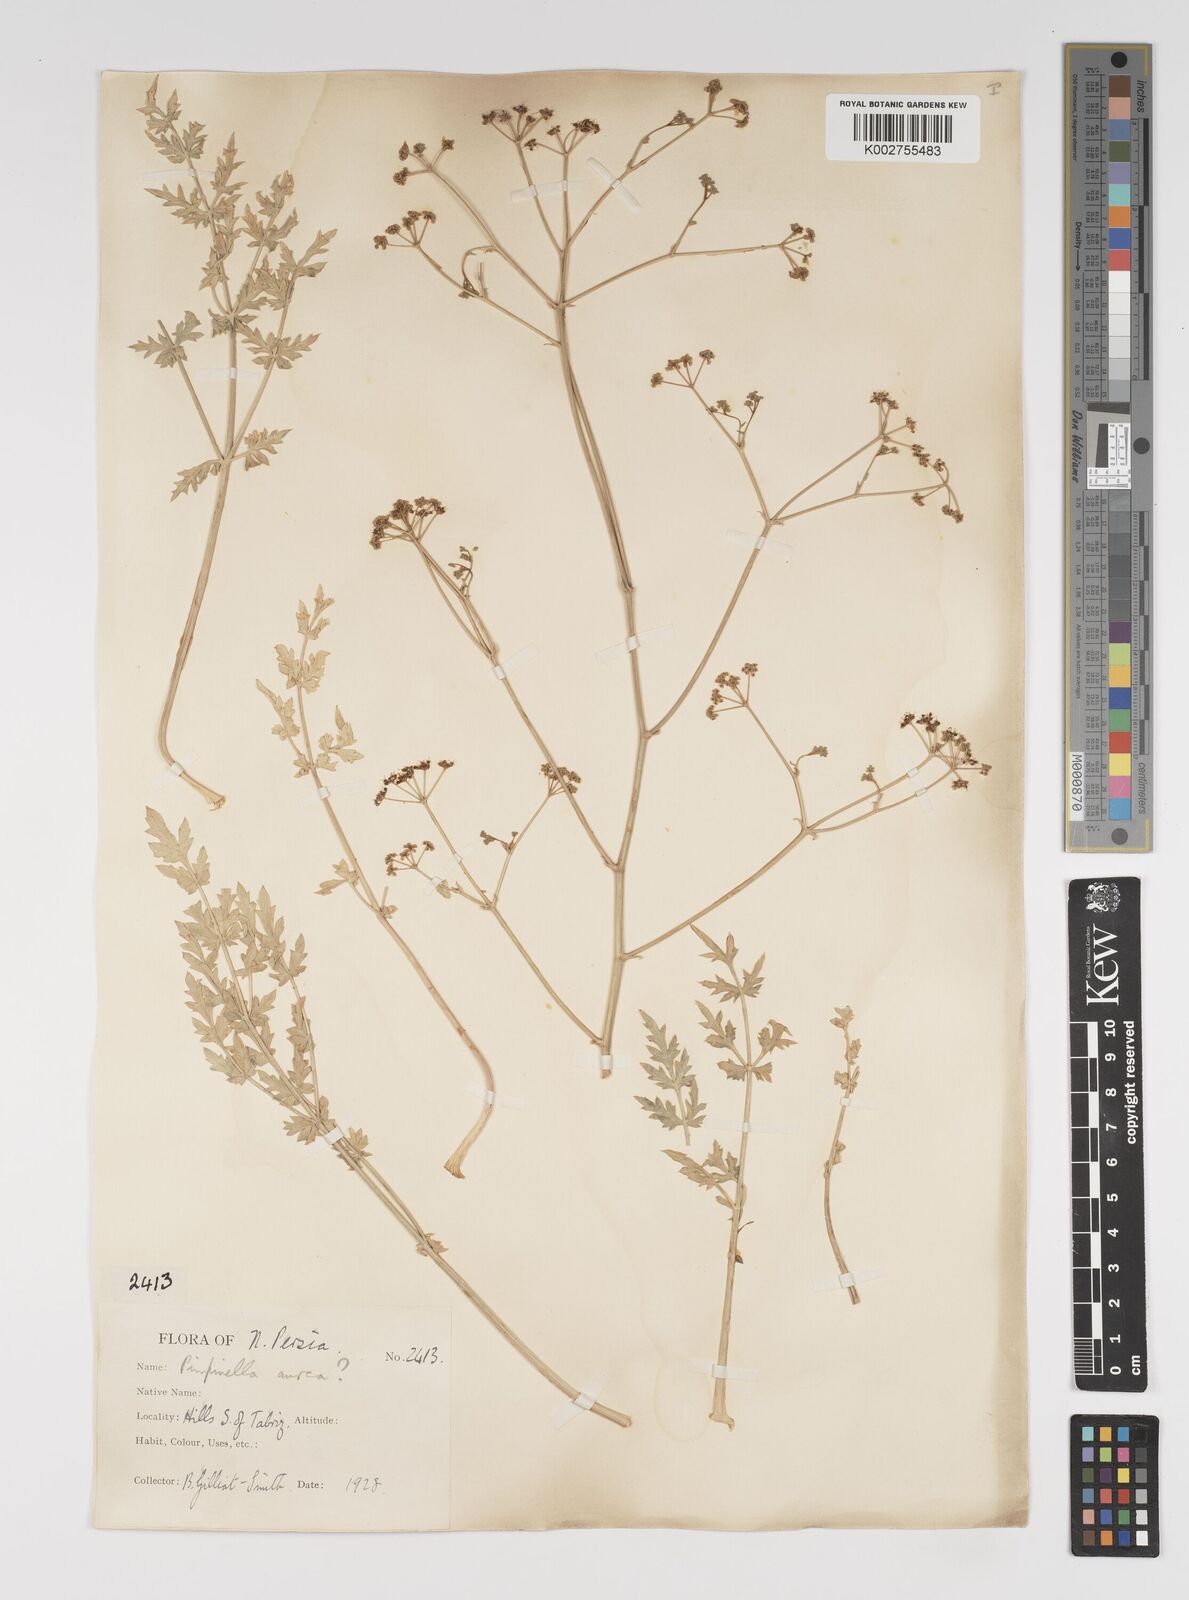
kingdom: Plantae
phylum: Tracheophyta
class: Magnoliopsida
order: Apiales
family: Apiaceae
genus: Pimpinella
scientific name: Pimpinella aurea
